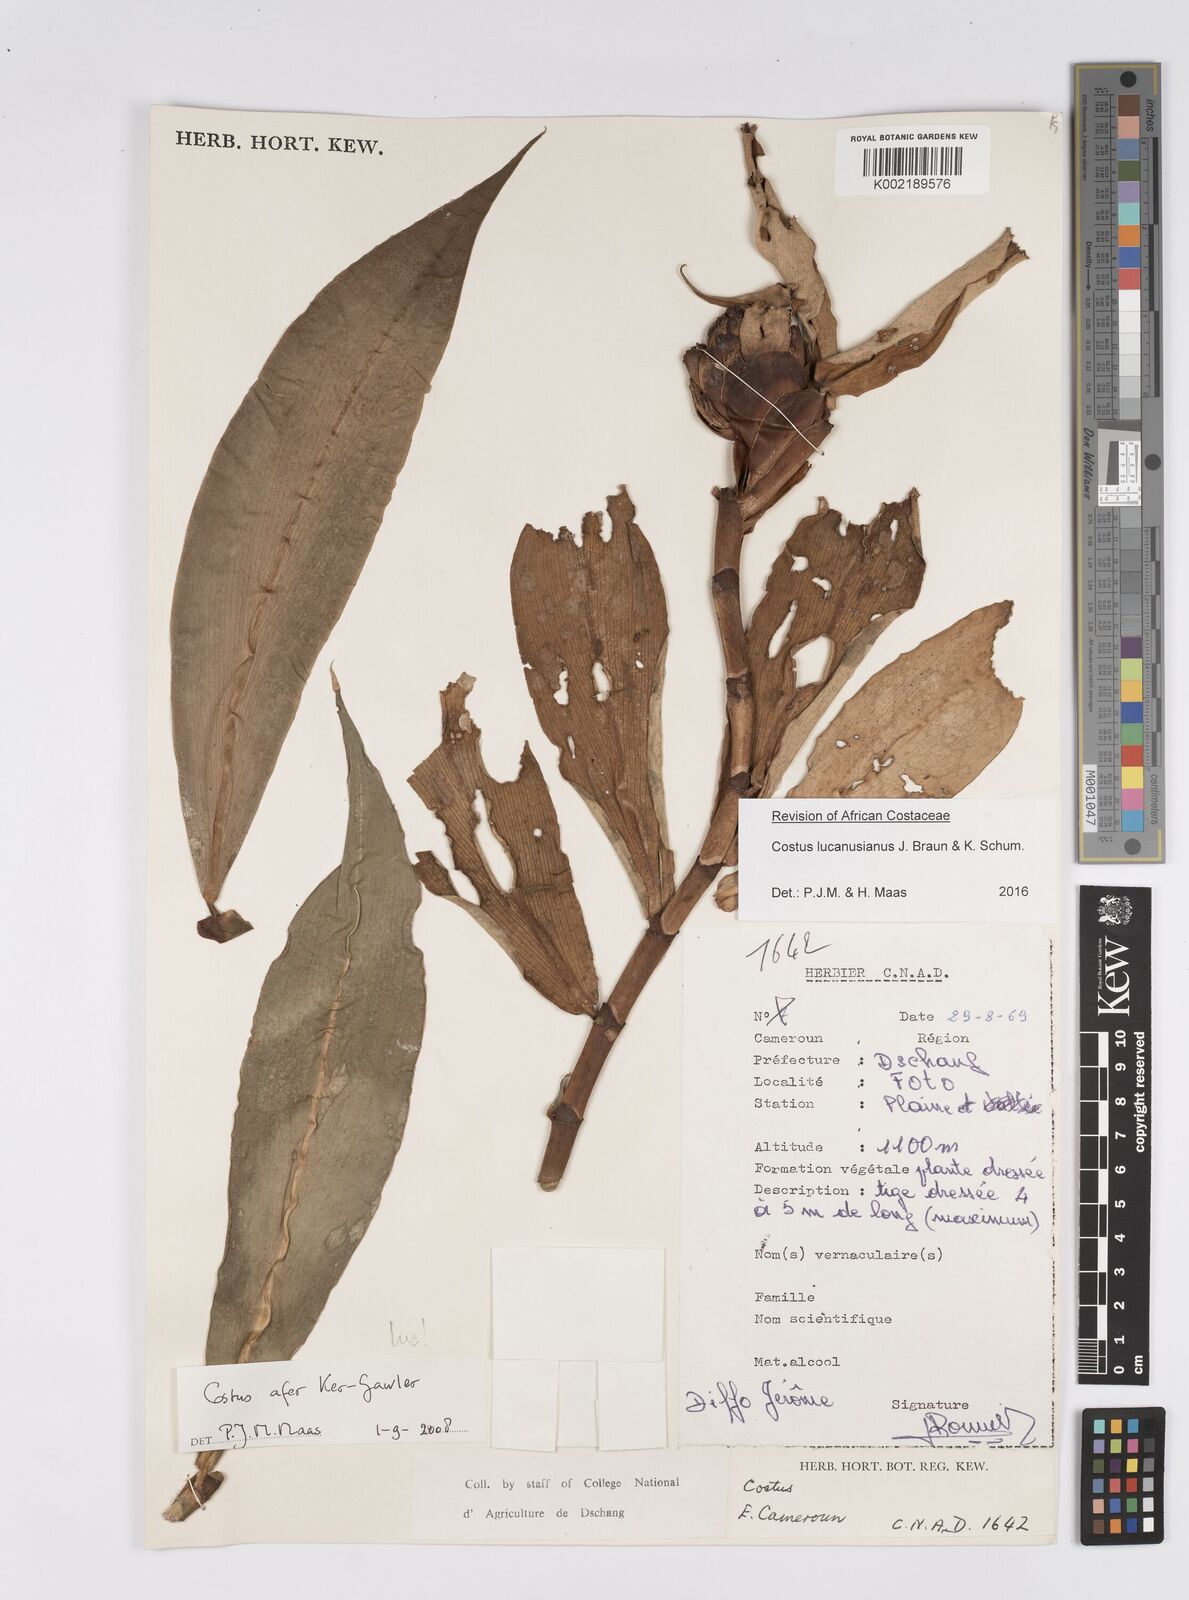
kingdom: Plantae
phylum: Tracheophyta
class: Liliopsida
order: Zingiberales
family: Costaceae
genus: Costus
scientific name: Costus lucanusianus
